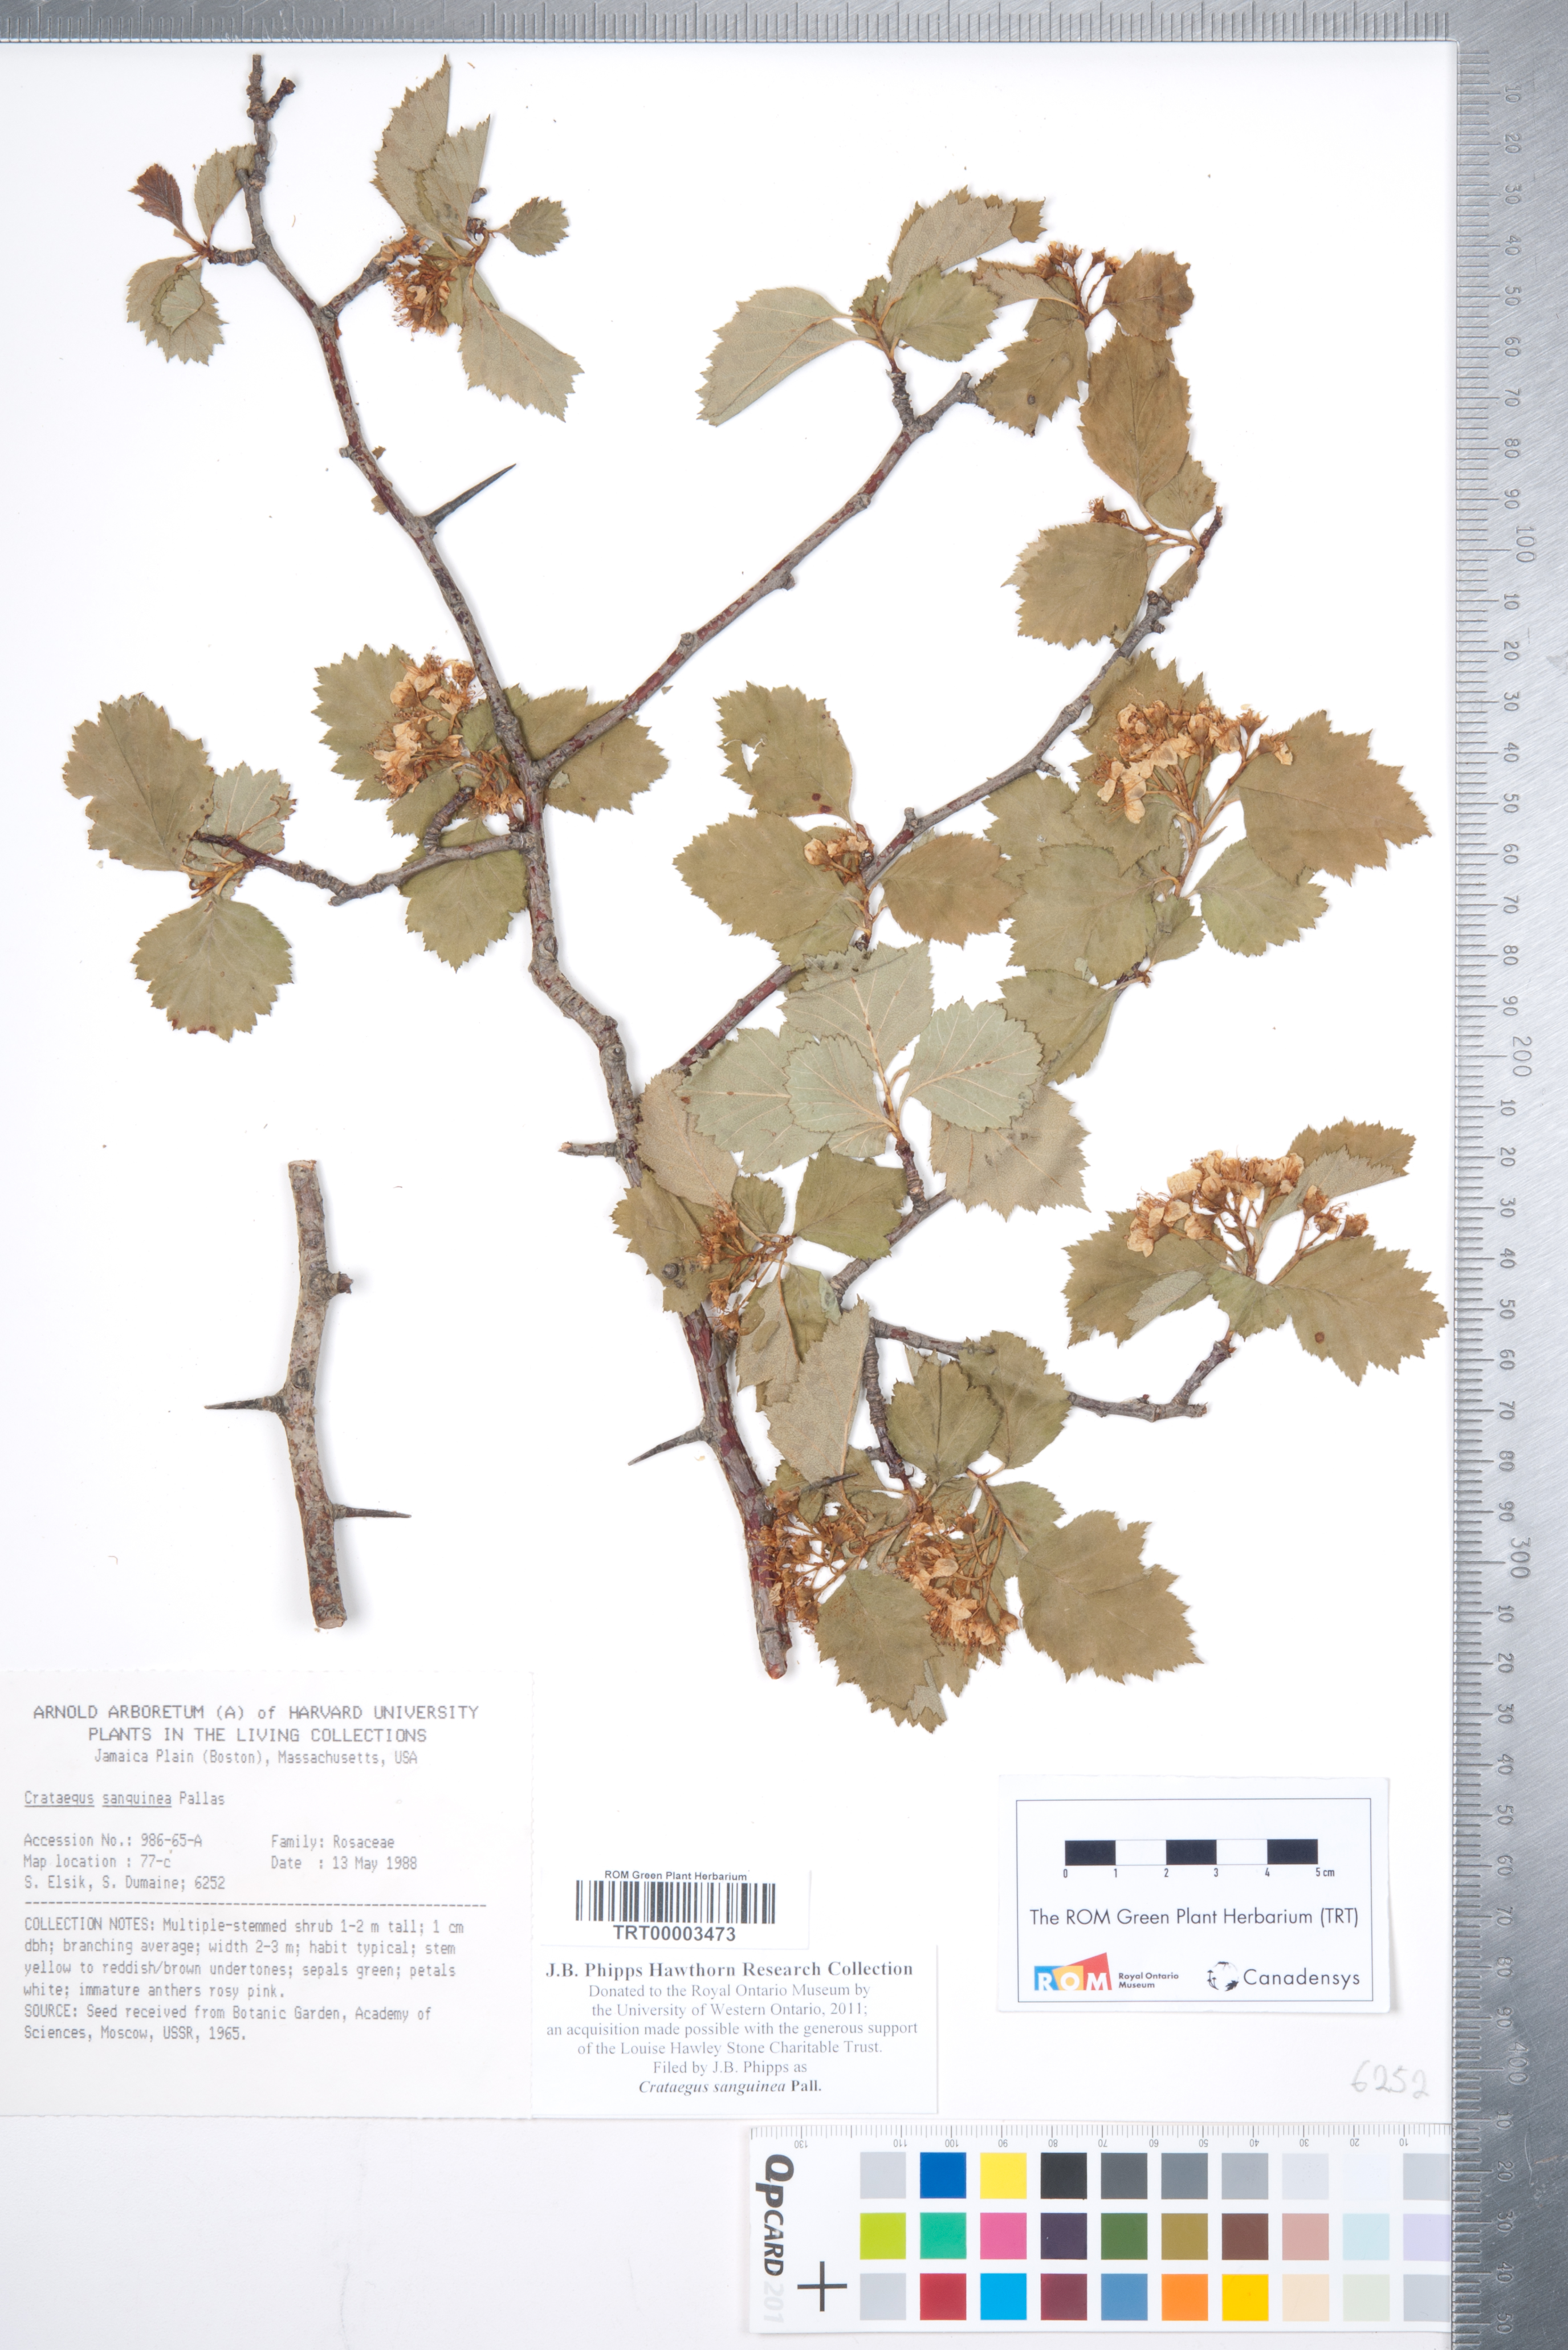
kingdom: Plantae
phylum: Tracheophyta
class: Magnoliopsida
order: Rosales
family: Rosaceae
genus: Crataegus
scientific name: Crataegus sanguinea
